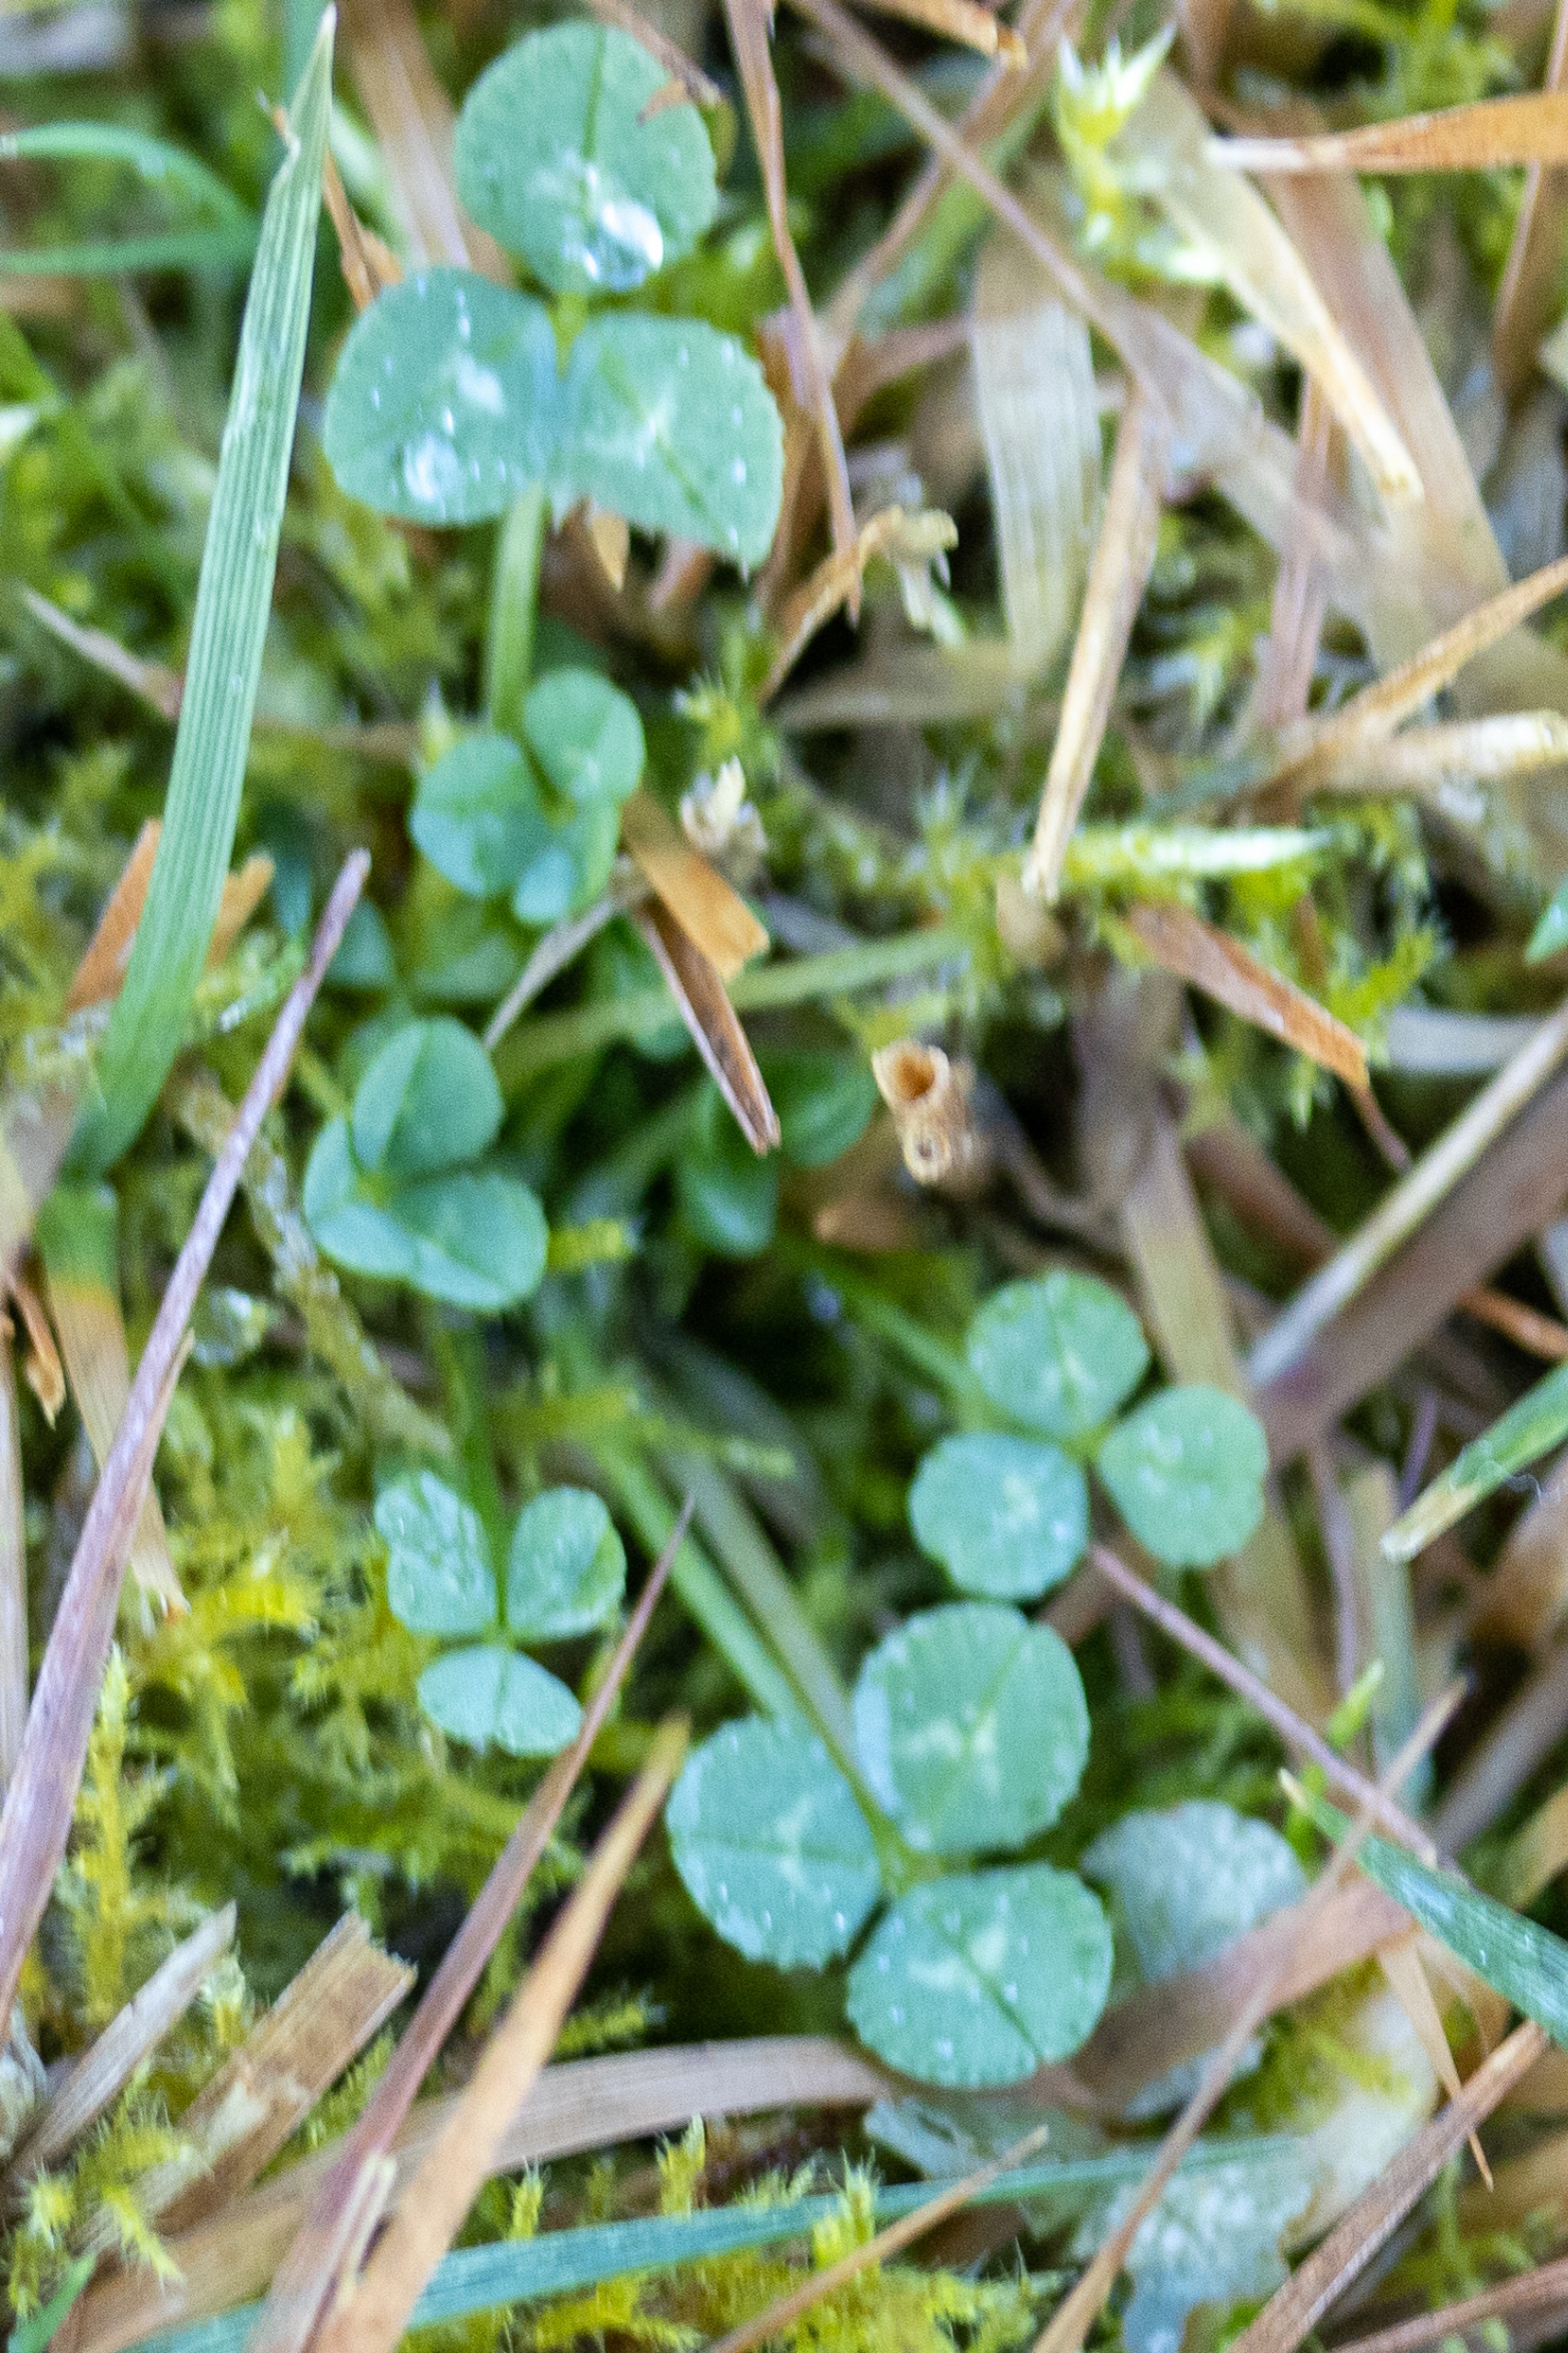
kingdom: Plantae
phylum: Tracheophyta
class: Magnoliopsida
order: Fabales
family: Fabaceae
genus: Trifolium
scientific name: Trifolium repens
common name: Hvid-kløver
